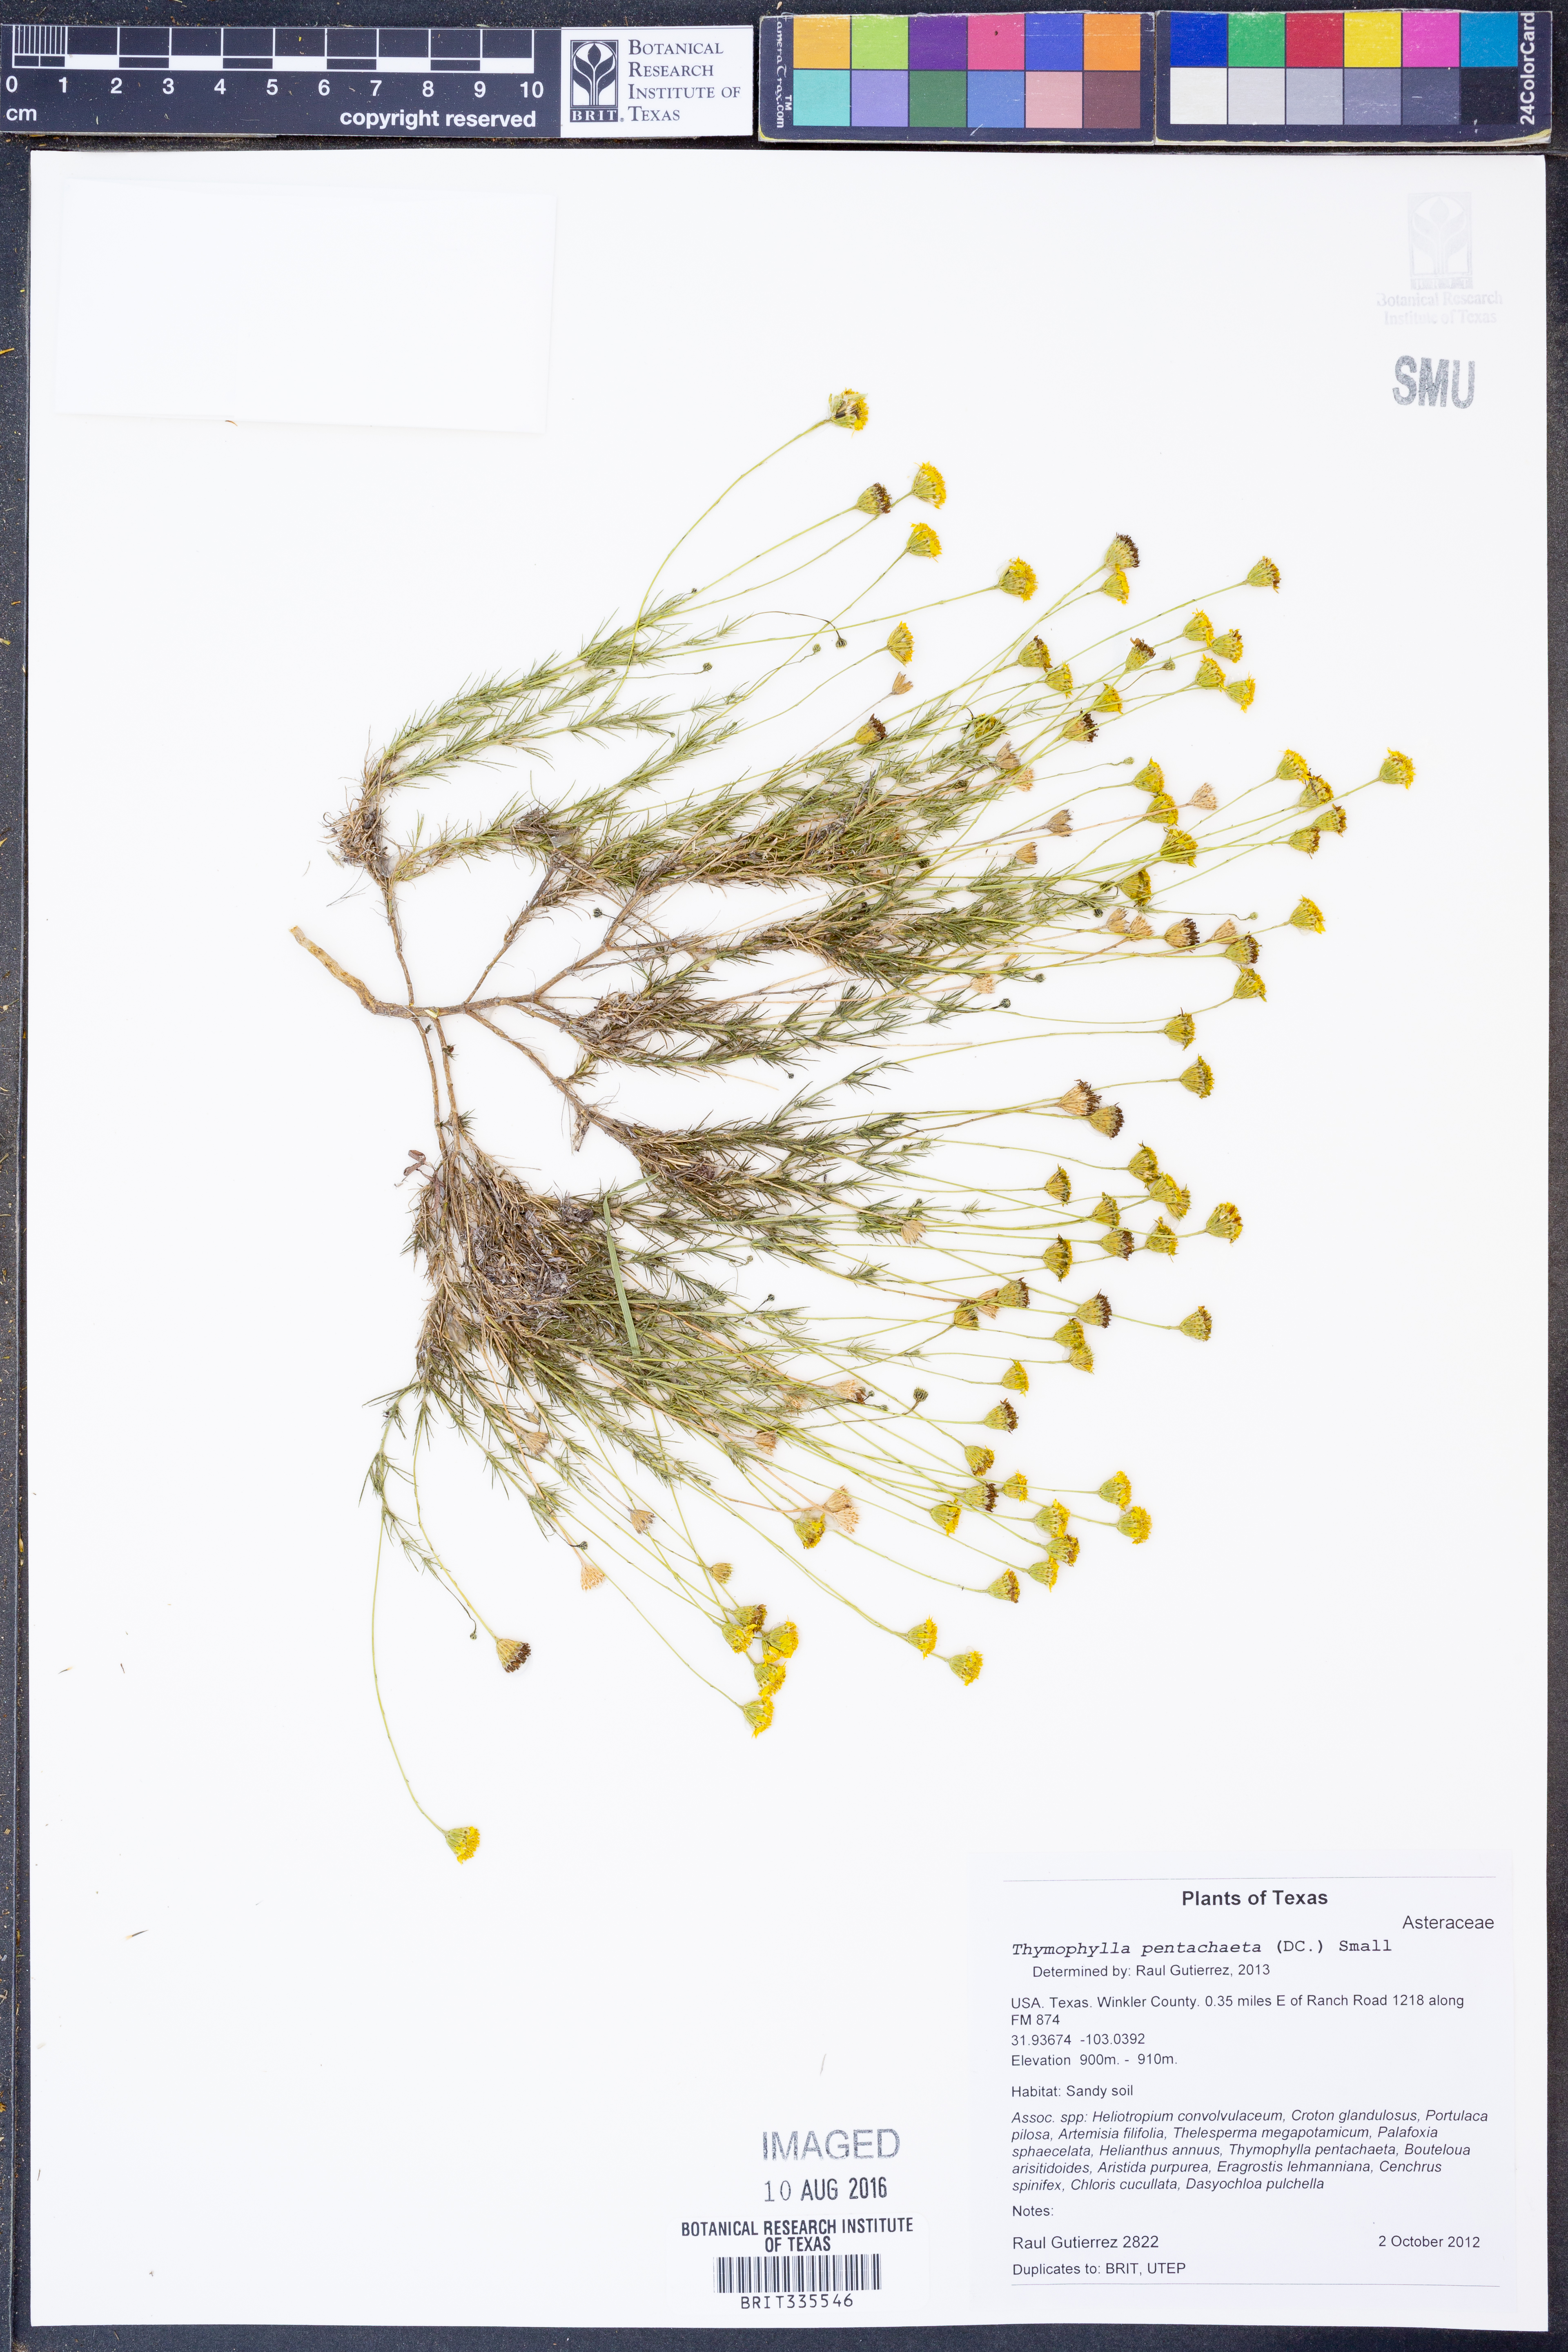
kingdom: Plantae
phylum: Tracheophyta
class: Magnoliopsida
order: Asterales
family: Asteraceae
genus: Thymophylla
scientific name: Thymophylla pentachaeta
